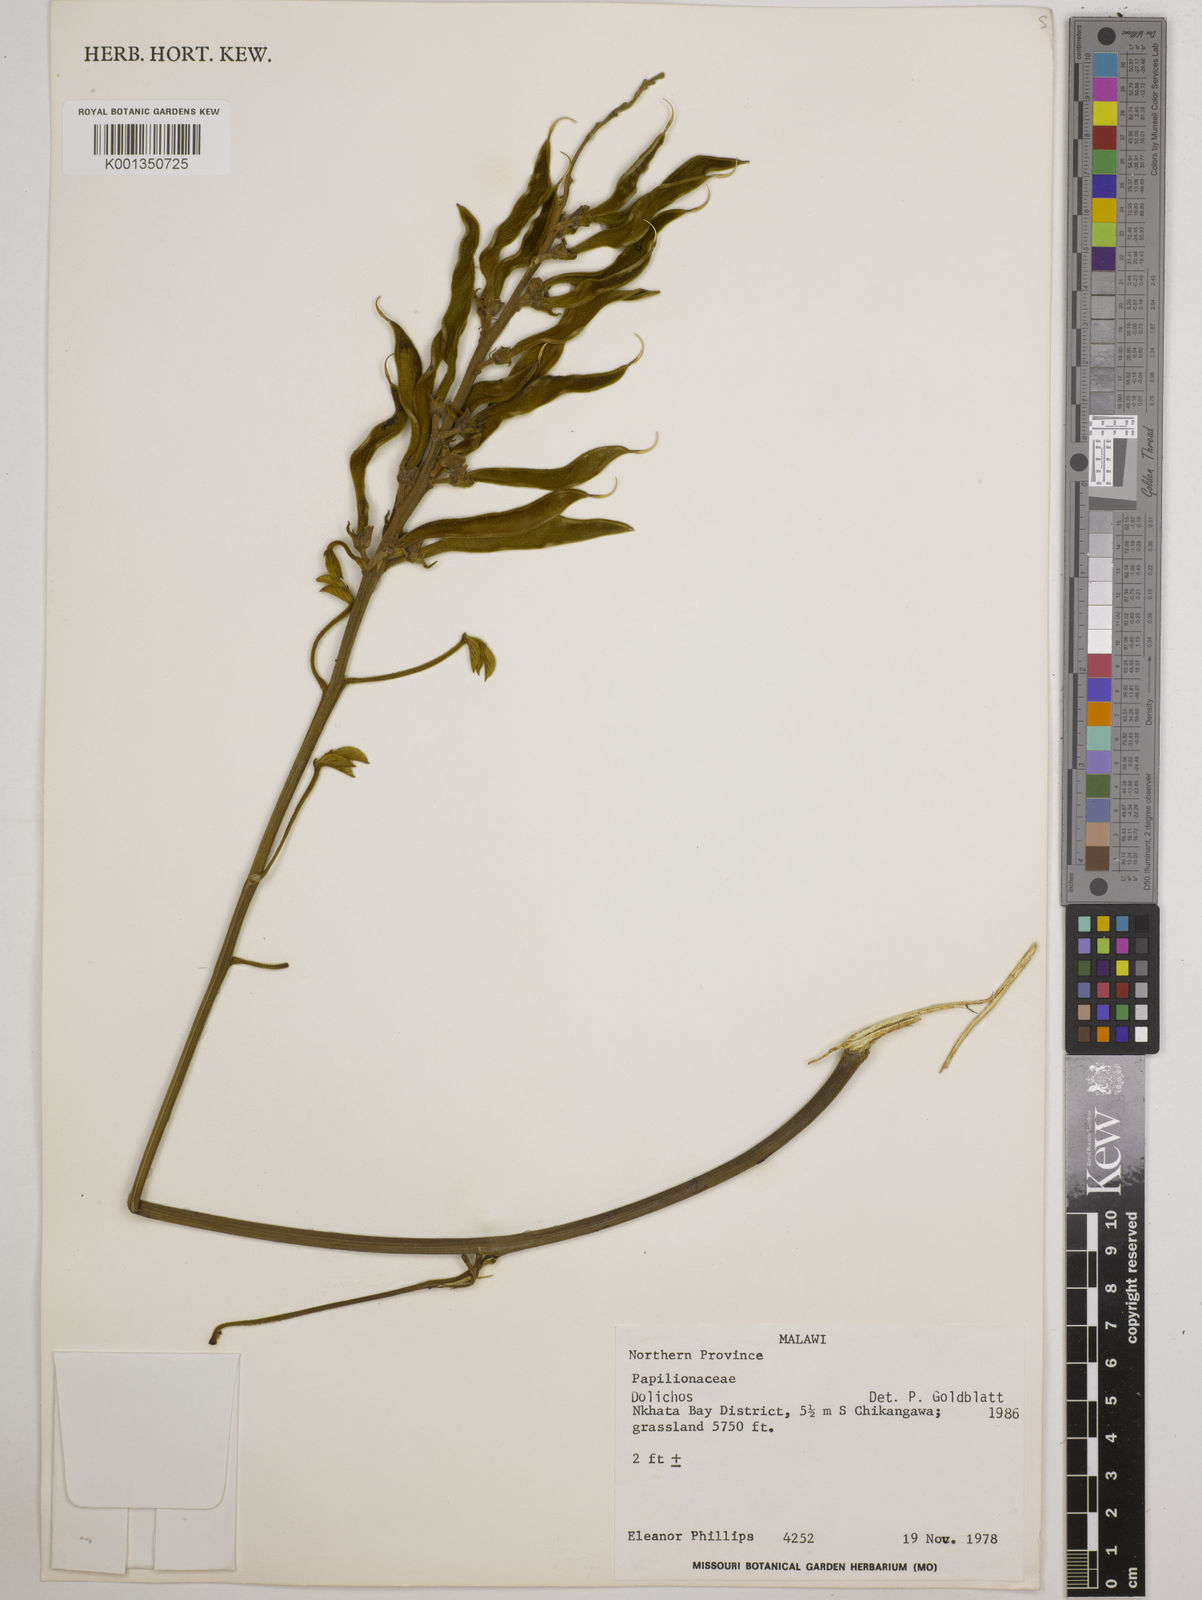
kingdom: Plantae
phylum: Tracheophyta
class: Magnoliopsida
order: Fabales
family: Fabaceae
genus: Dolichos
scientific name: Dolichos
